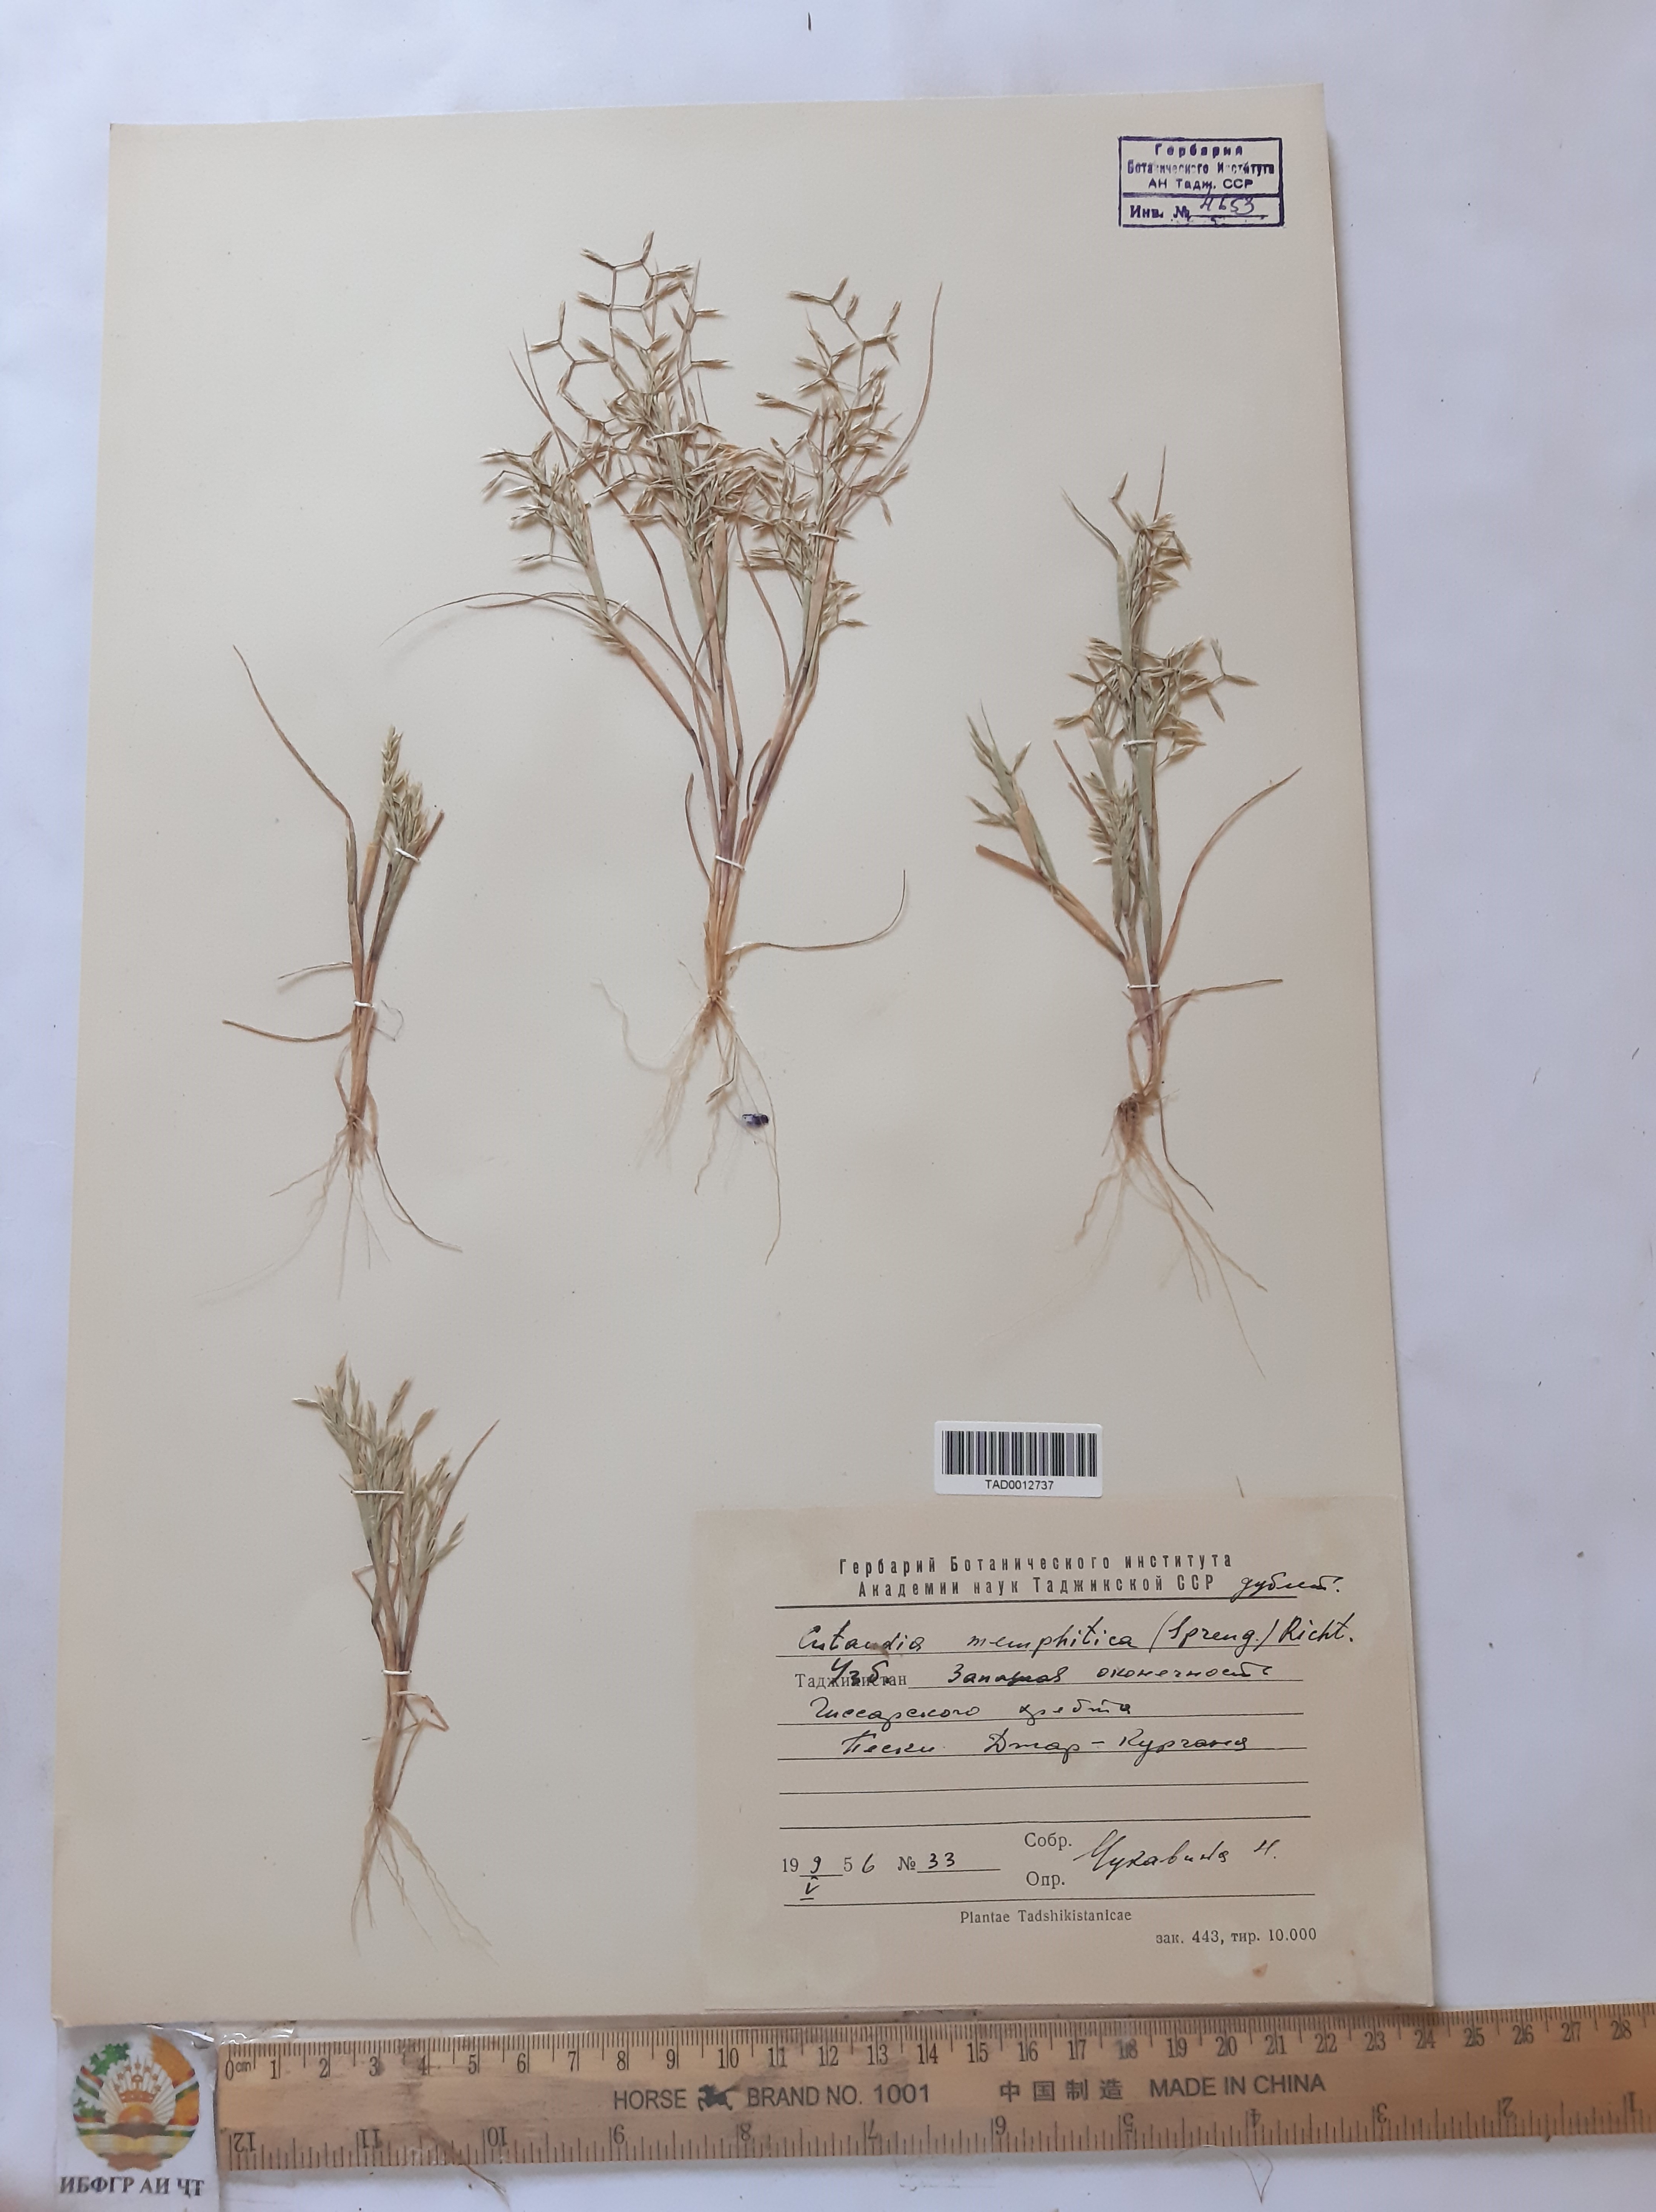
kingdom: Plantae
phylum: Tracheophyta
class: Liliopsida
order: Poales
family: Poaceae
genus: Cutandia
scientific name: Cutandia memphitica
